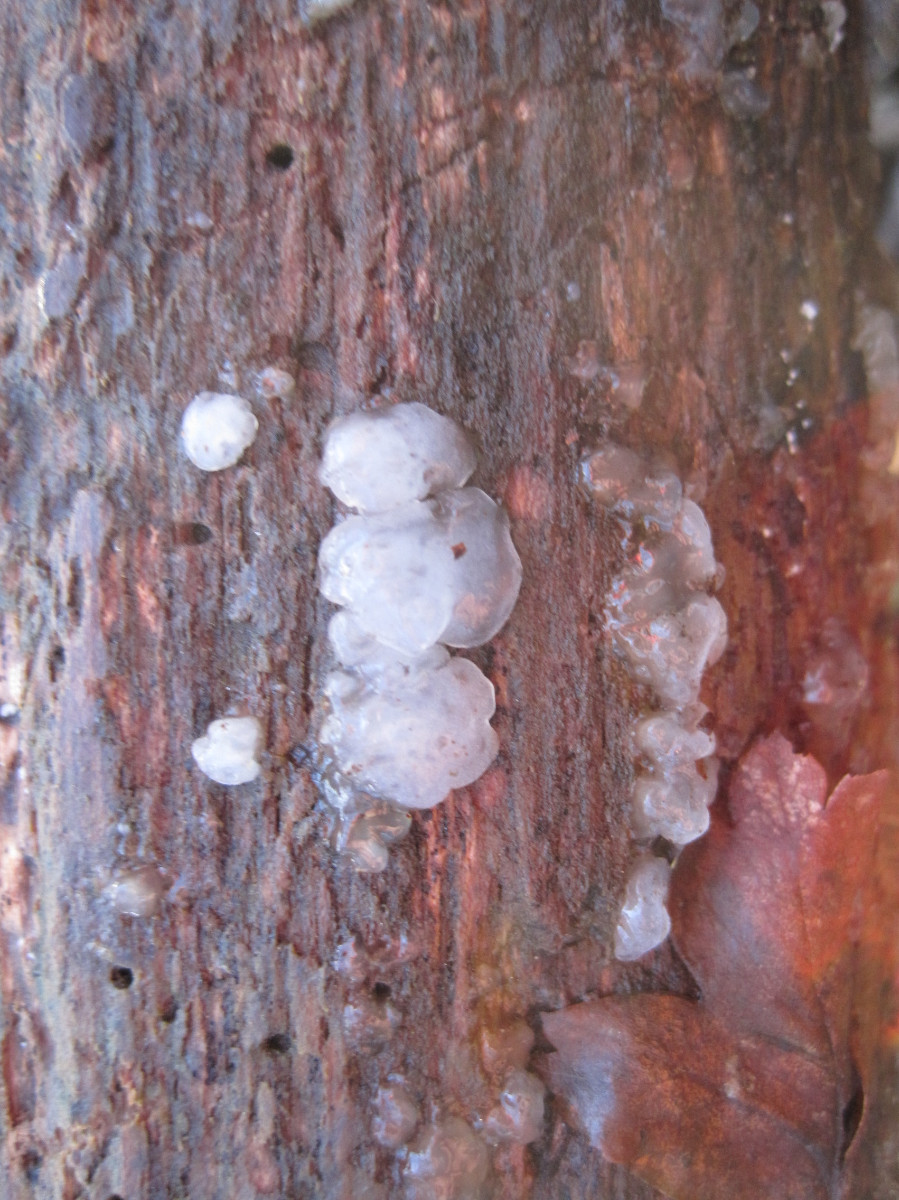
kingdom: Fungi
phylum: Basidiomycota
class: Agaricomycetes
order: Auriculariales
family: Hyaloriaceae
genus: Myxarium
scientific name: Myxarium nucleatum
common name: klar bævretop
